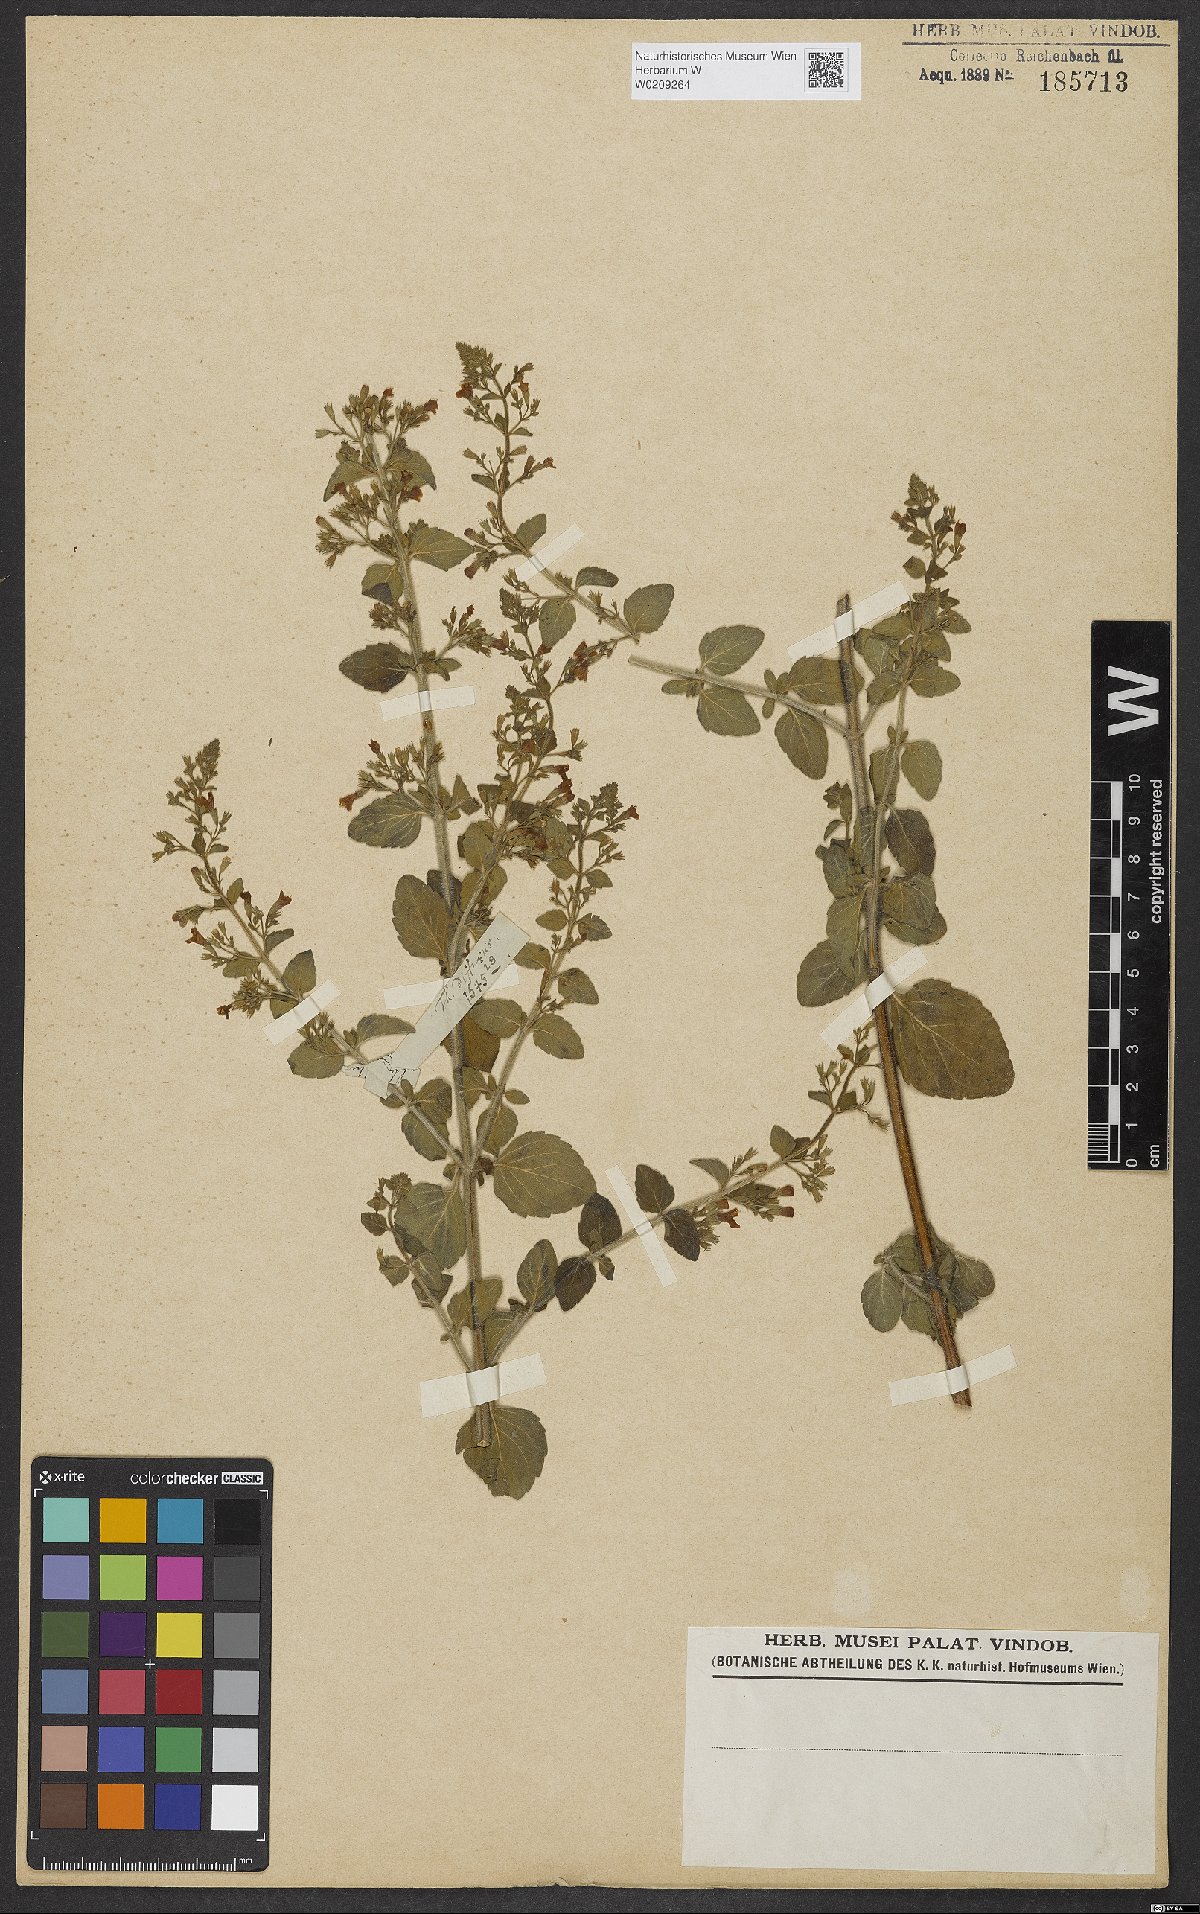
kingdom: Plantae
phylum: Tracheophyta
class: Magnoliopsida
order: Lamiales
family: Lamiaceae
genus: Clinopodium
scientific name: Clinopodium acinos
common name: Basil thyme
